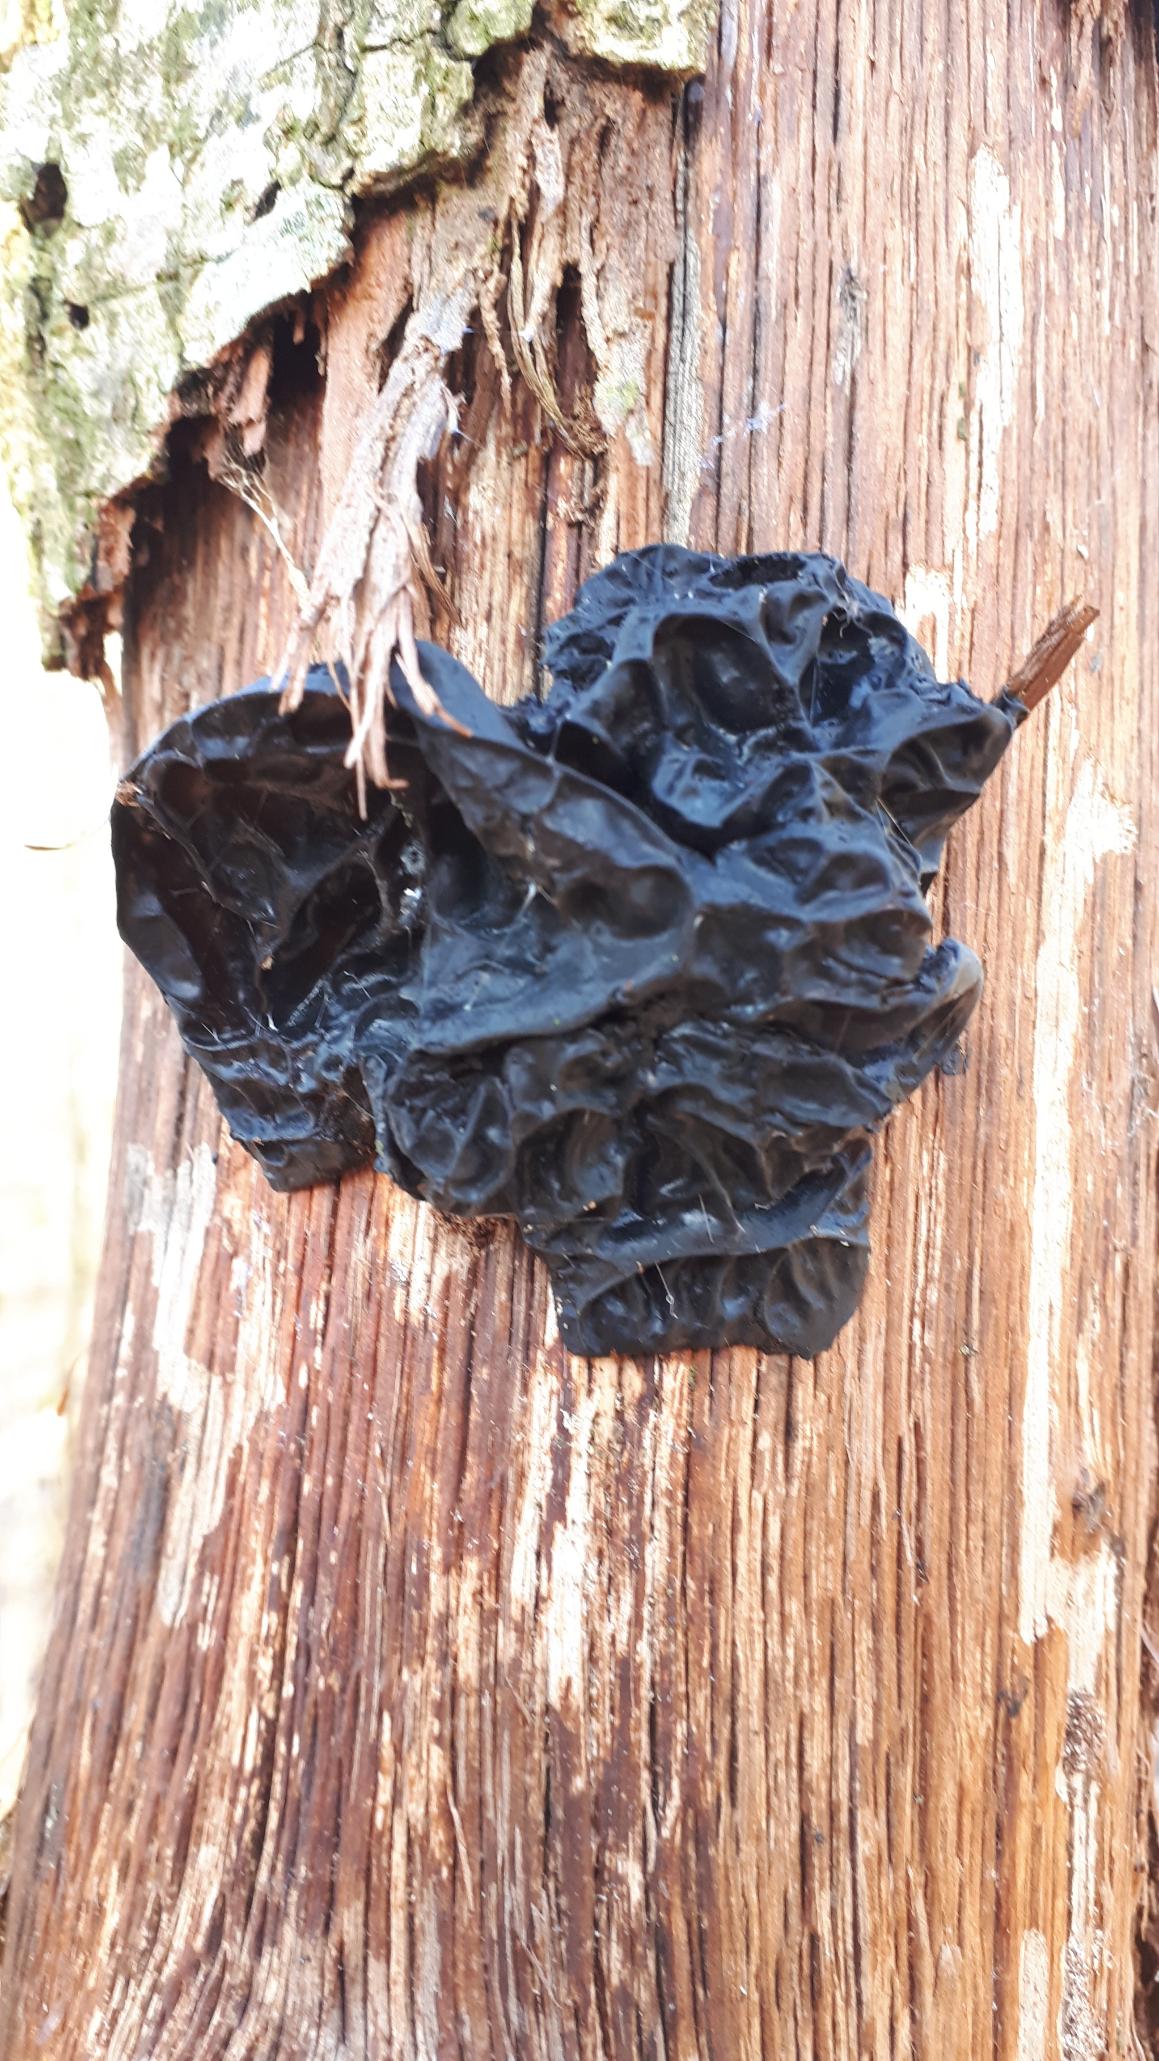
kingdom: Fungi
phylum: Basidiomycota
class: Agaricomycetes
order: Auriculariales
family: Auriculariaceae
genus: Exidia
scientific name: Exidia glandulosa
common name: Ege-bævretop
